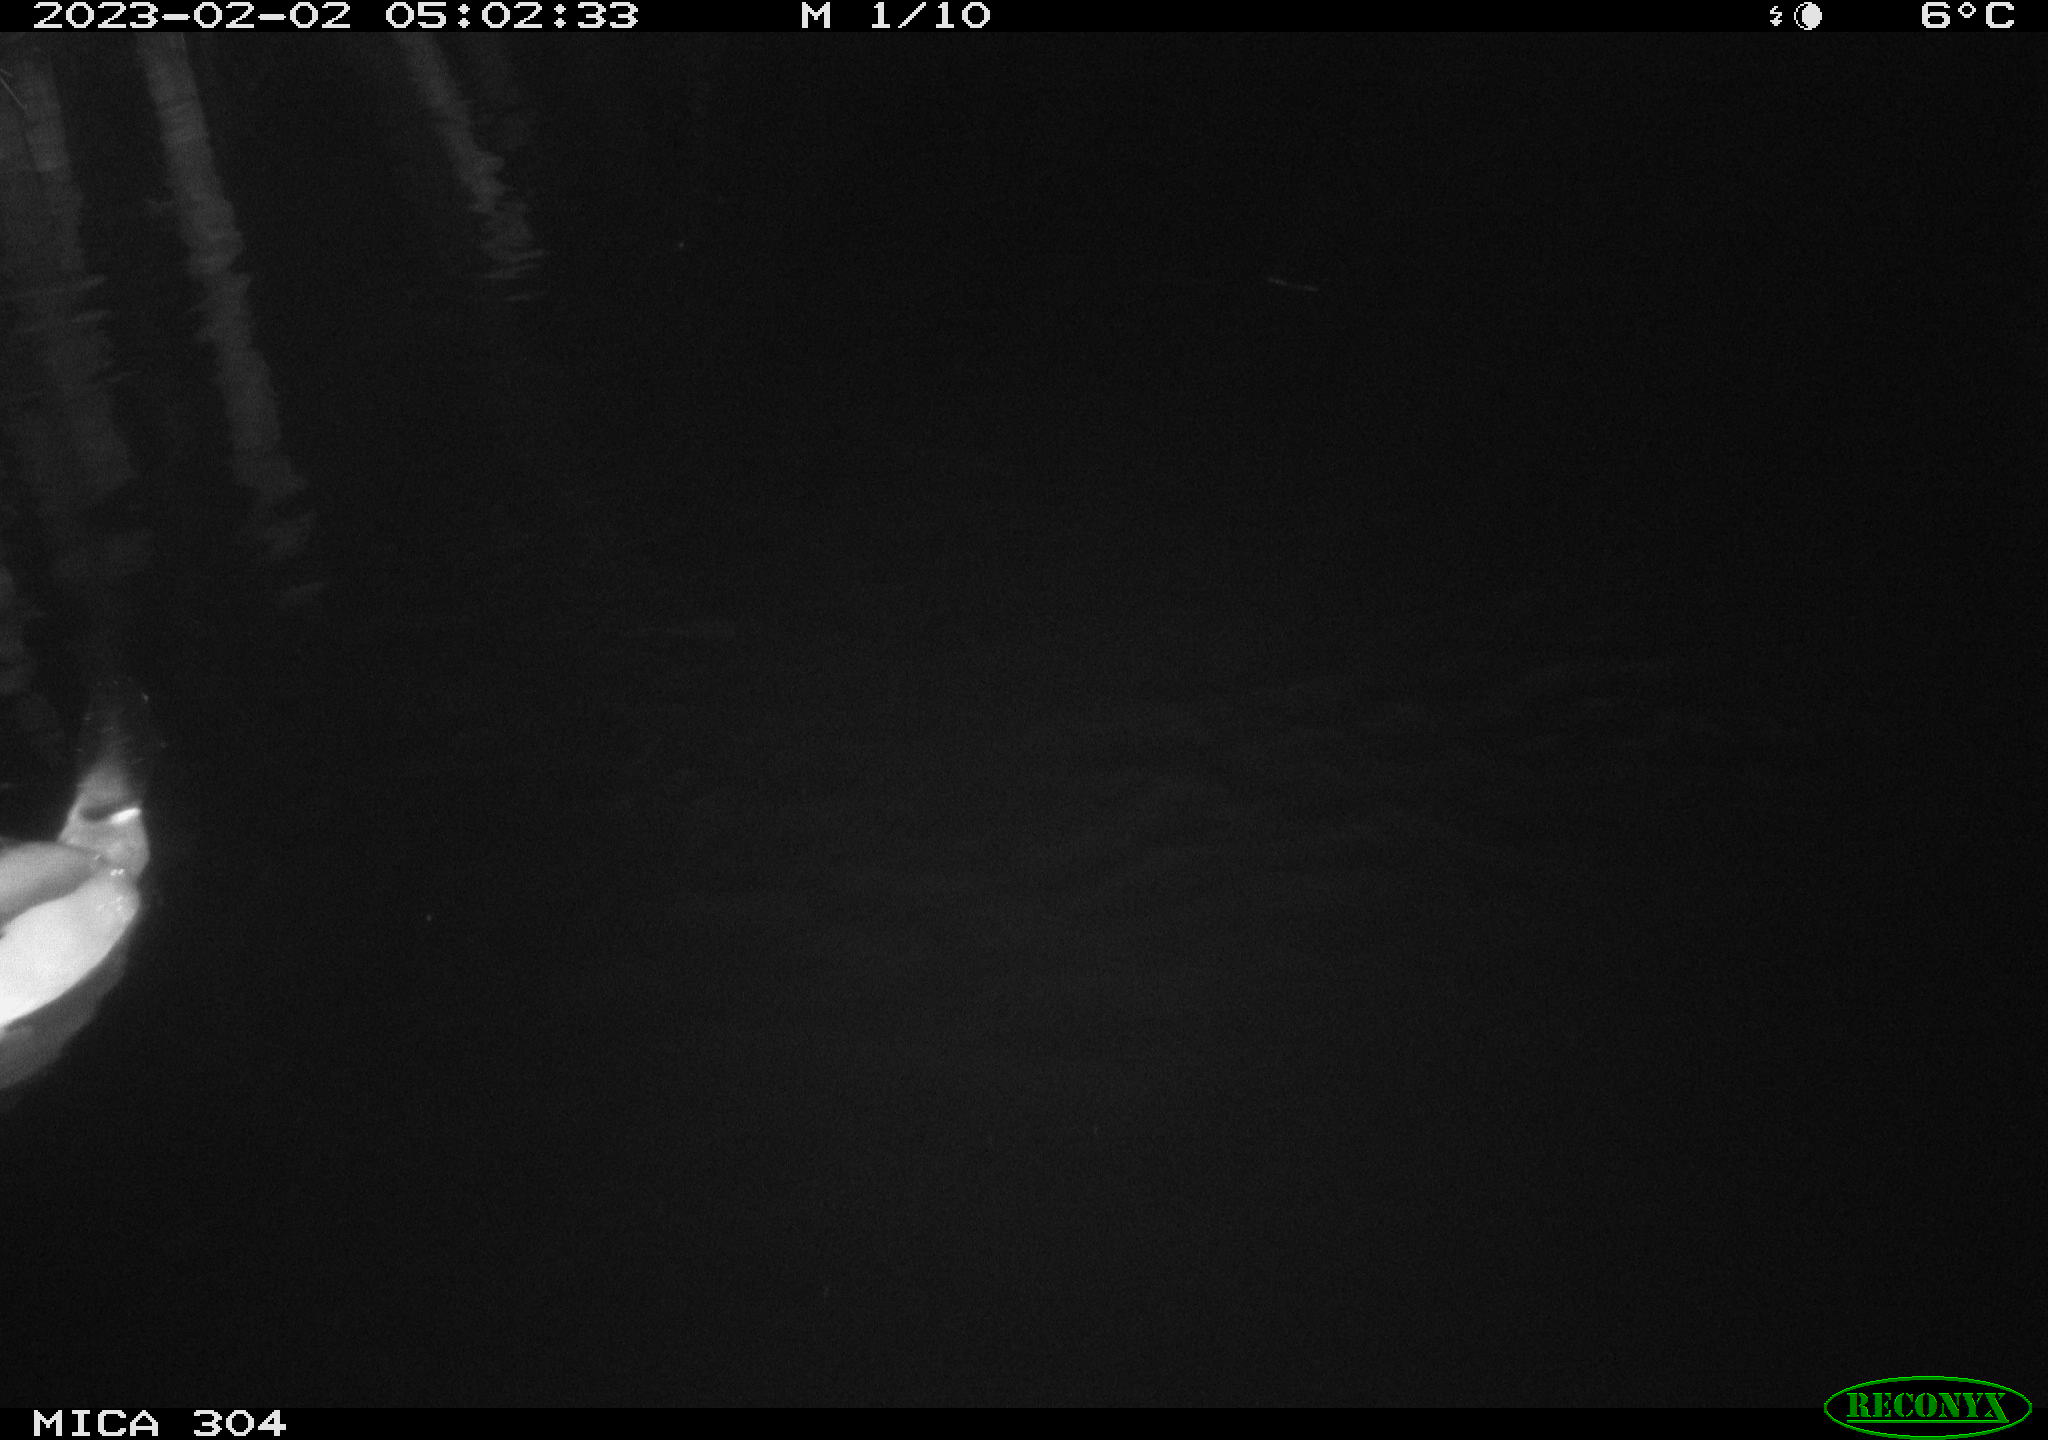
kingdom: Animalia
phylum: Chordata
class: Aves
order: Anseriformes
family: Anatidae
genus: Anas
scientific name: Anas
